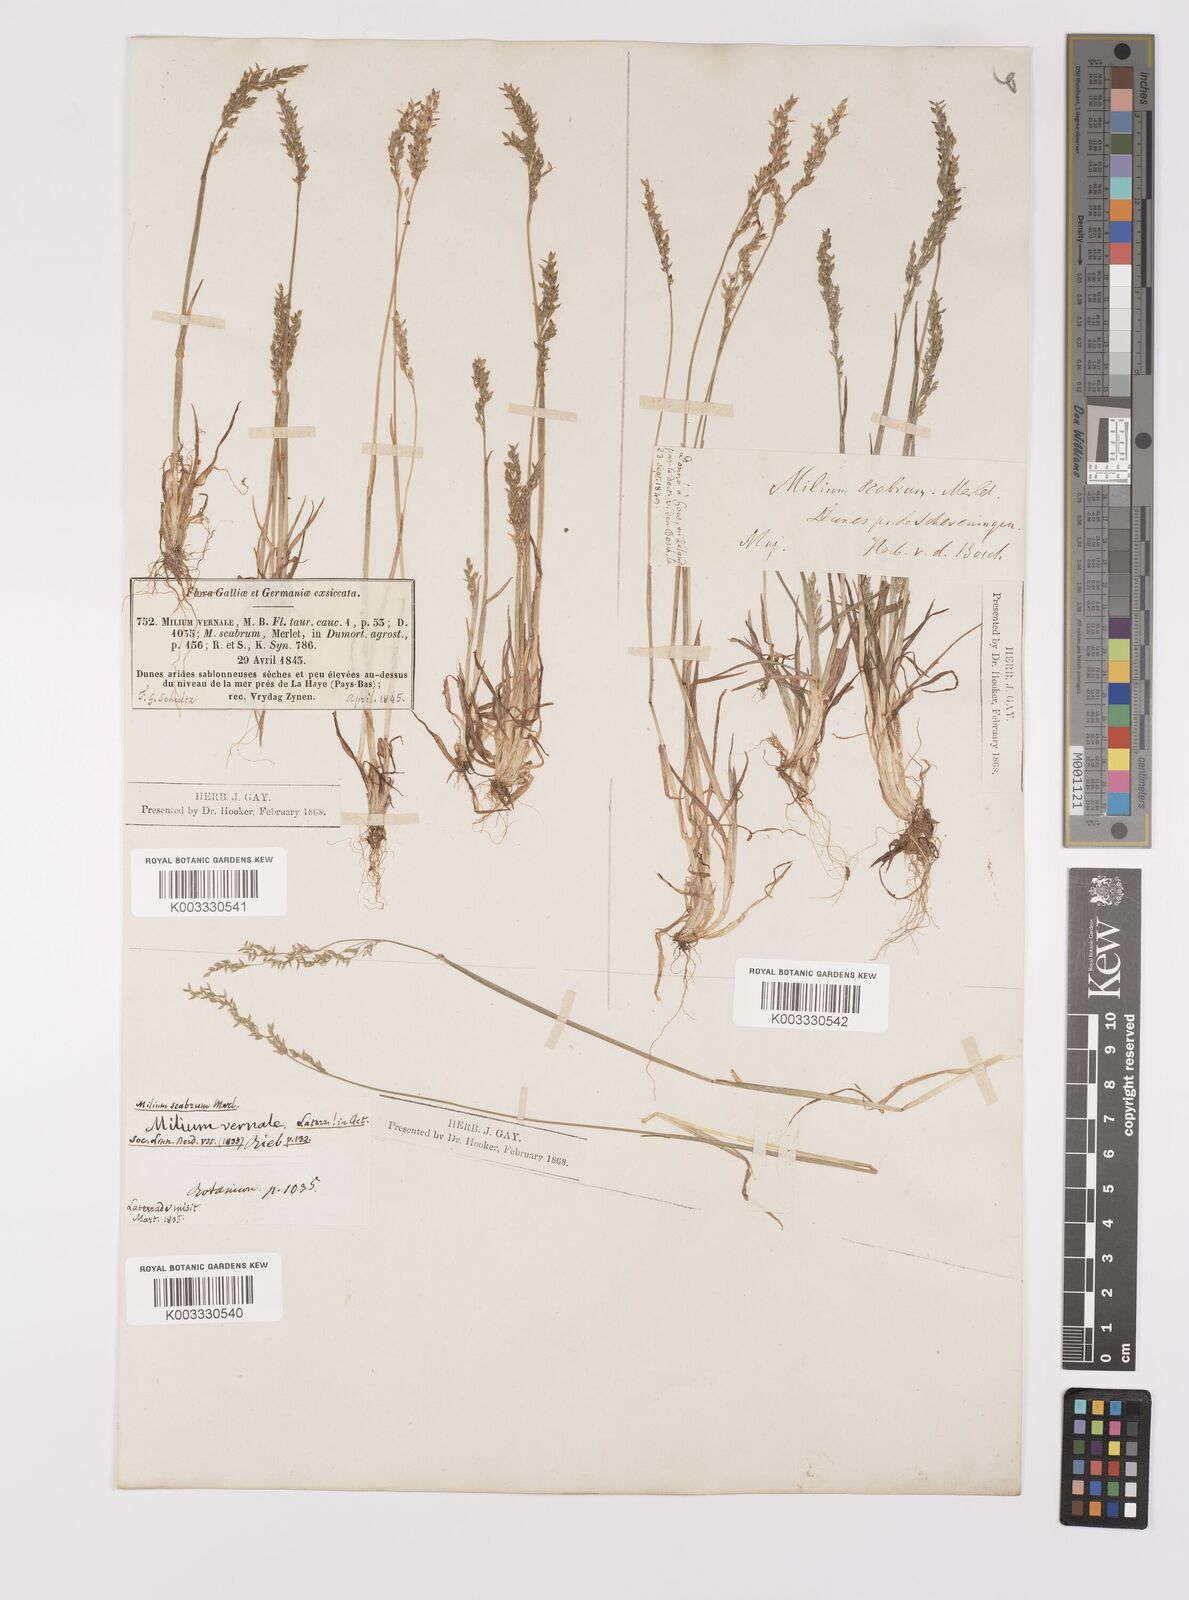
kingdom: Plantae
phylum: Tracheophyta
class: Liliopsida
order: Poales
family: Poaceae
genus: Milium
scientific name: Milium vernale
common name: Early millet
